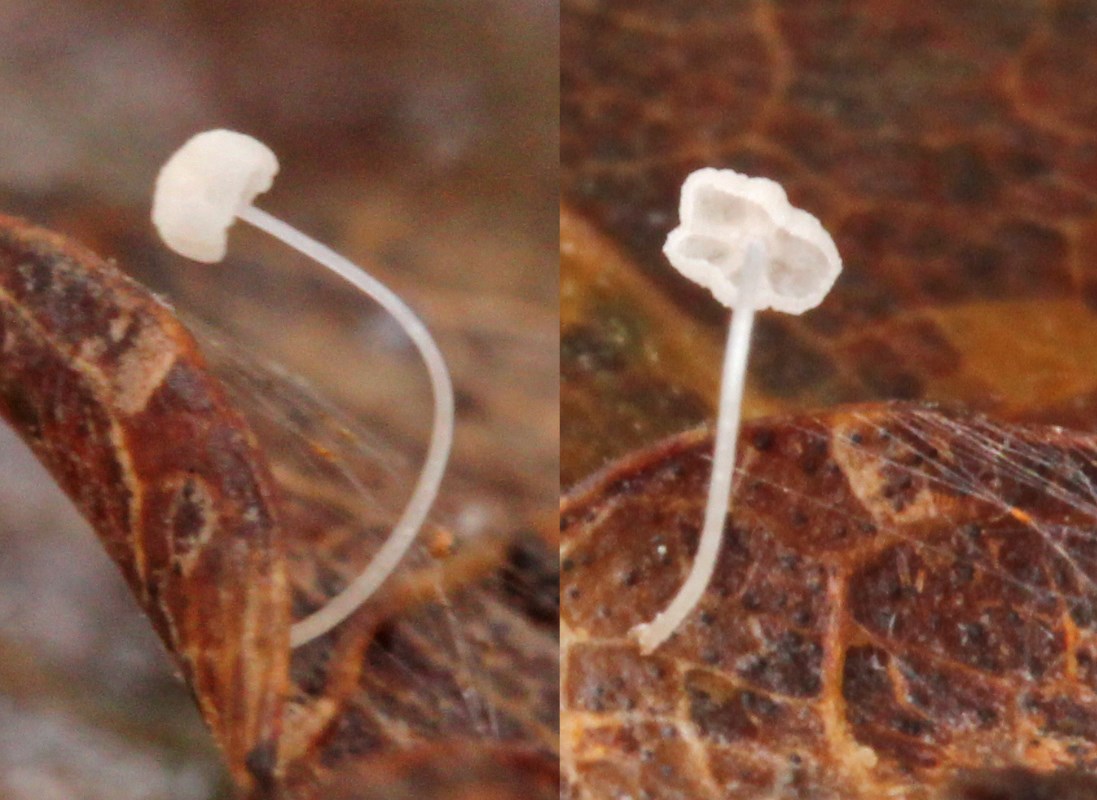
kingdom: Fungi
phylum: Basidiomycota
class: Agaricomycetes
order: Agaricales
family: Mycenaceae
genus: Mycena
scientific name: Mycena polyadelpha
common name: egeblads-huesvamp
